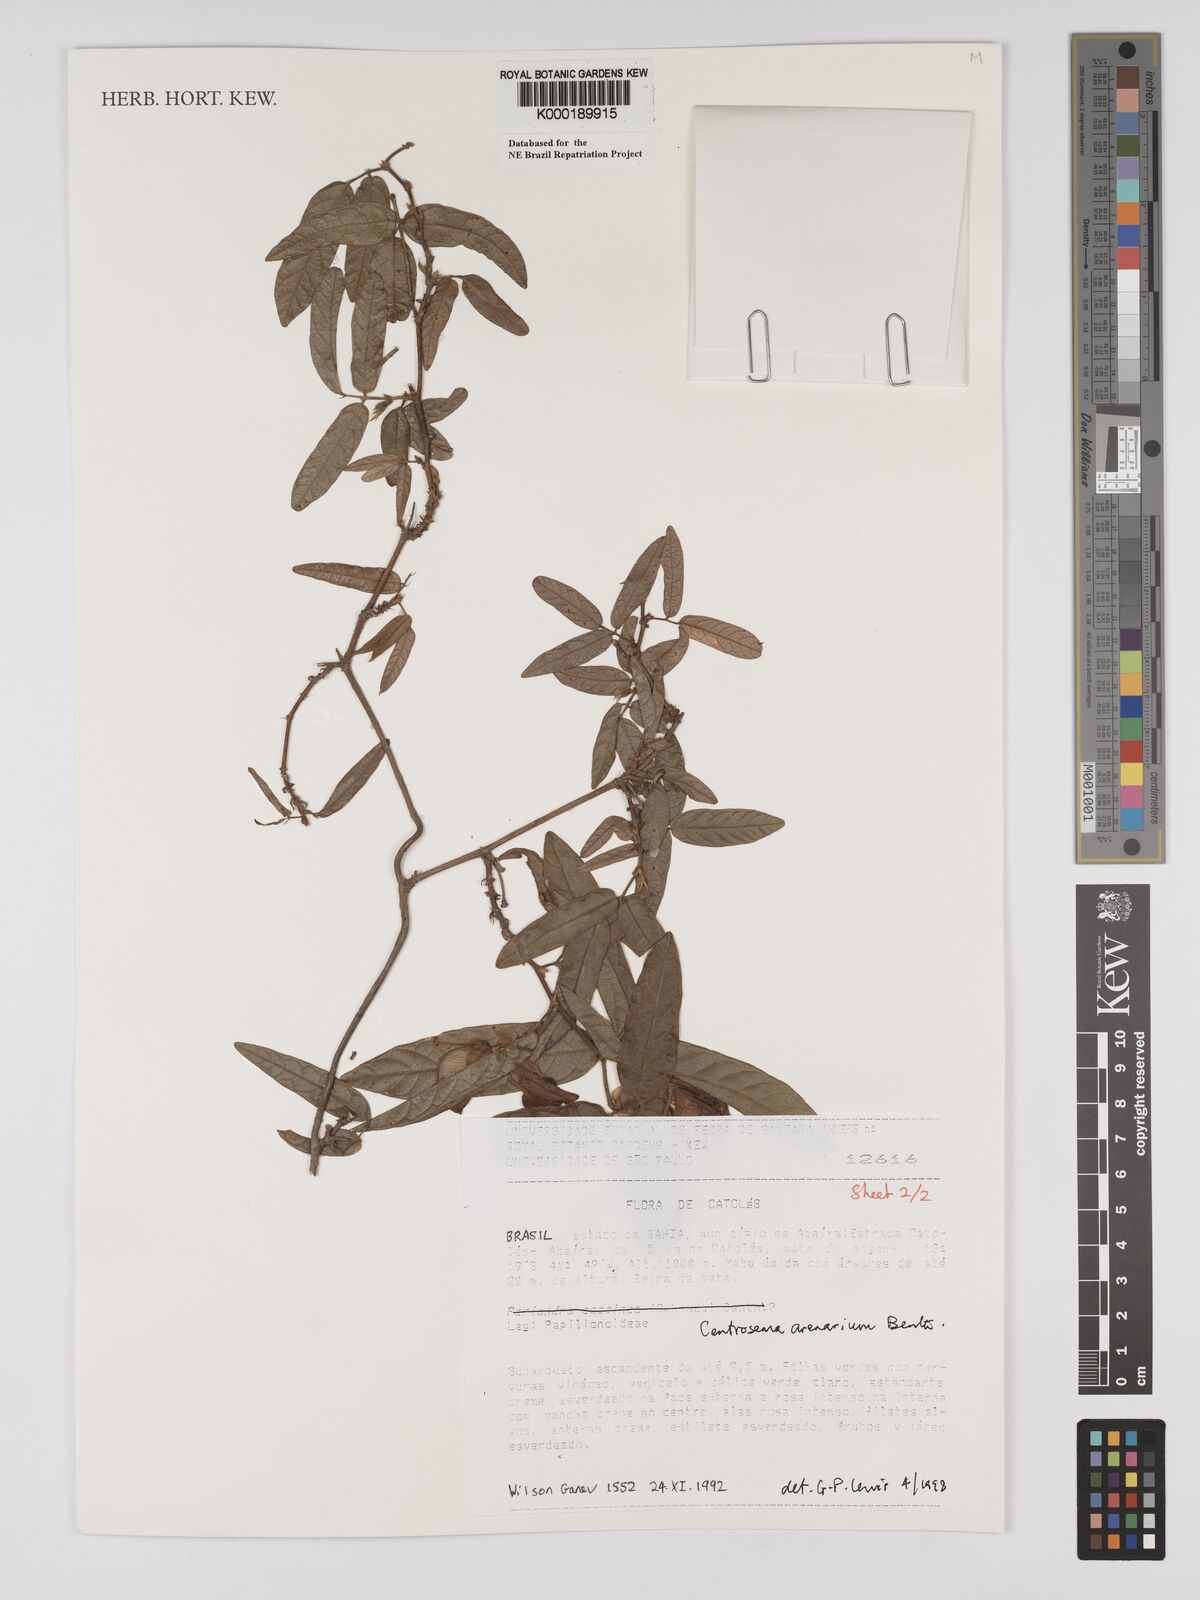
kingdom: Plantae
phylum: Tracheophyta
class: Magnoliopsida
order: Fabales
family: Fabaceae
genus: Centrosema
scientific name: Centrosema arenarium
